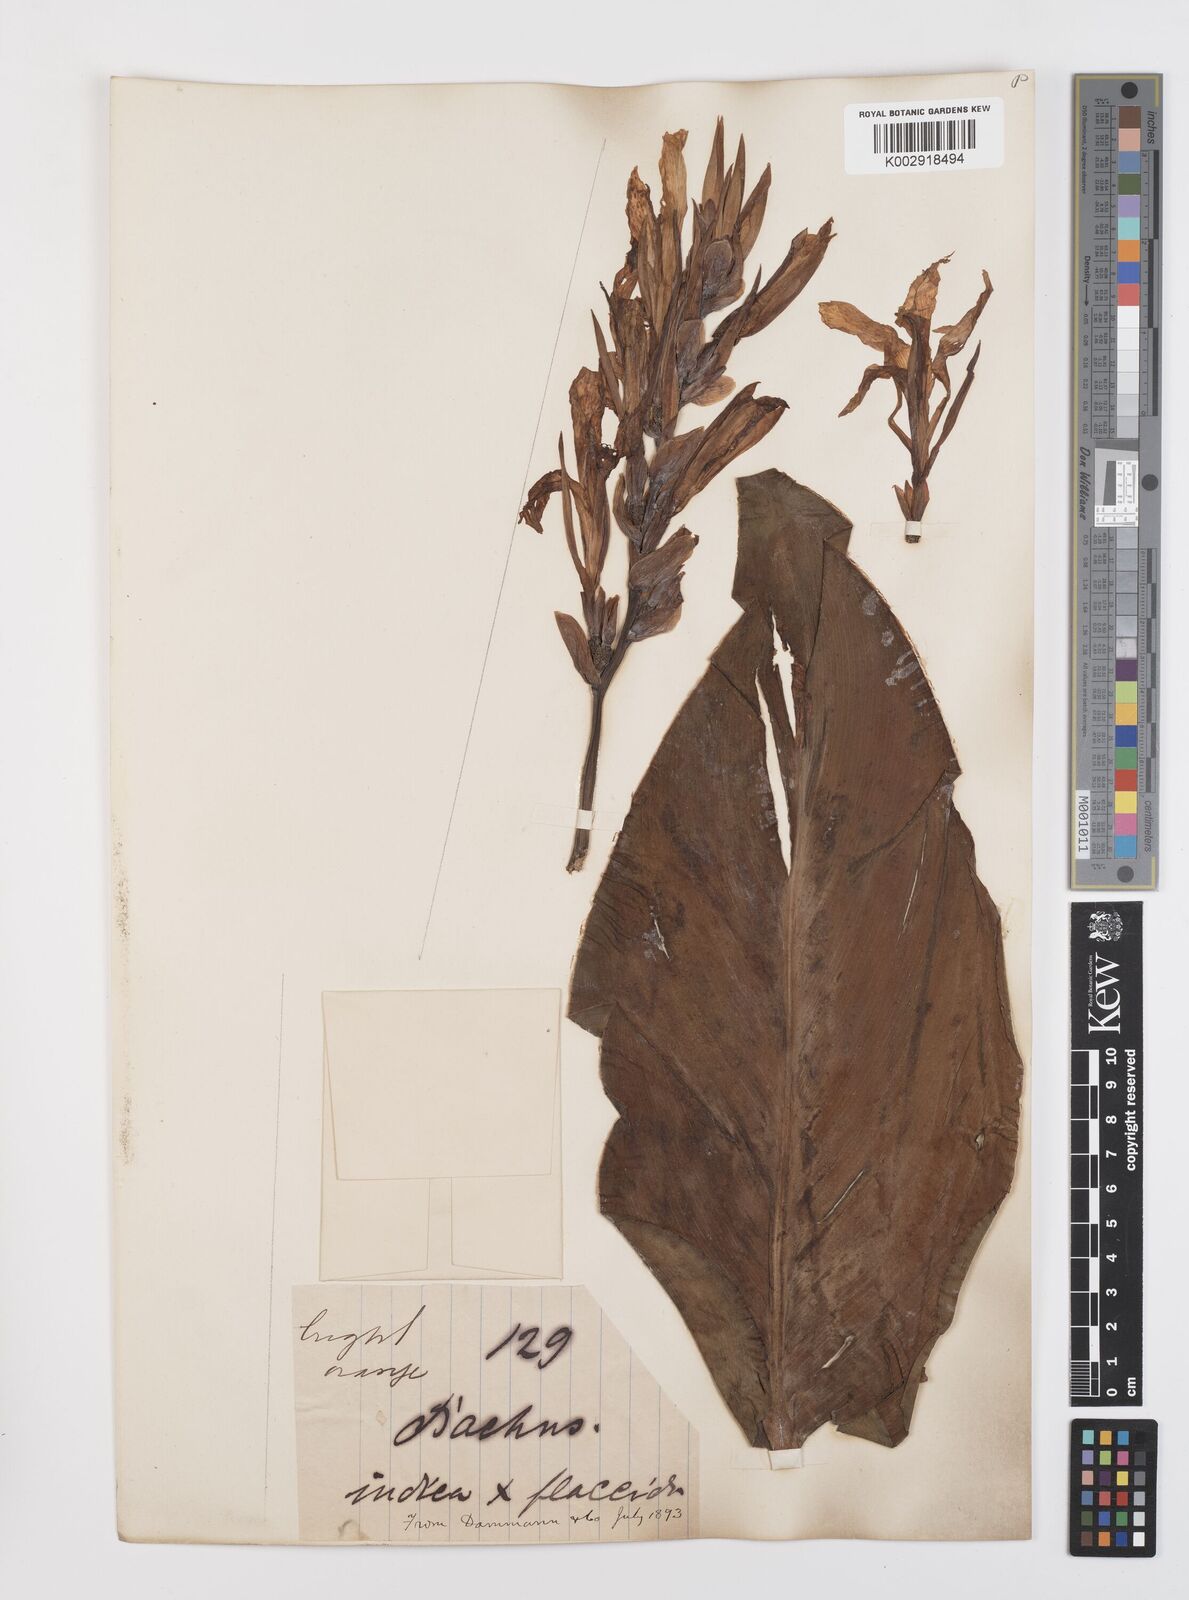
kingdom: Plantae
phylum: Tracheophyta
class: Liliopsida
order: Zingiberales
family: Cannaceae
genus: Canna
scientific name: Canna indica
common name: Indian shot
